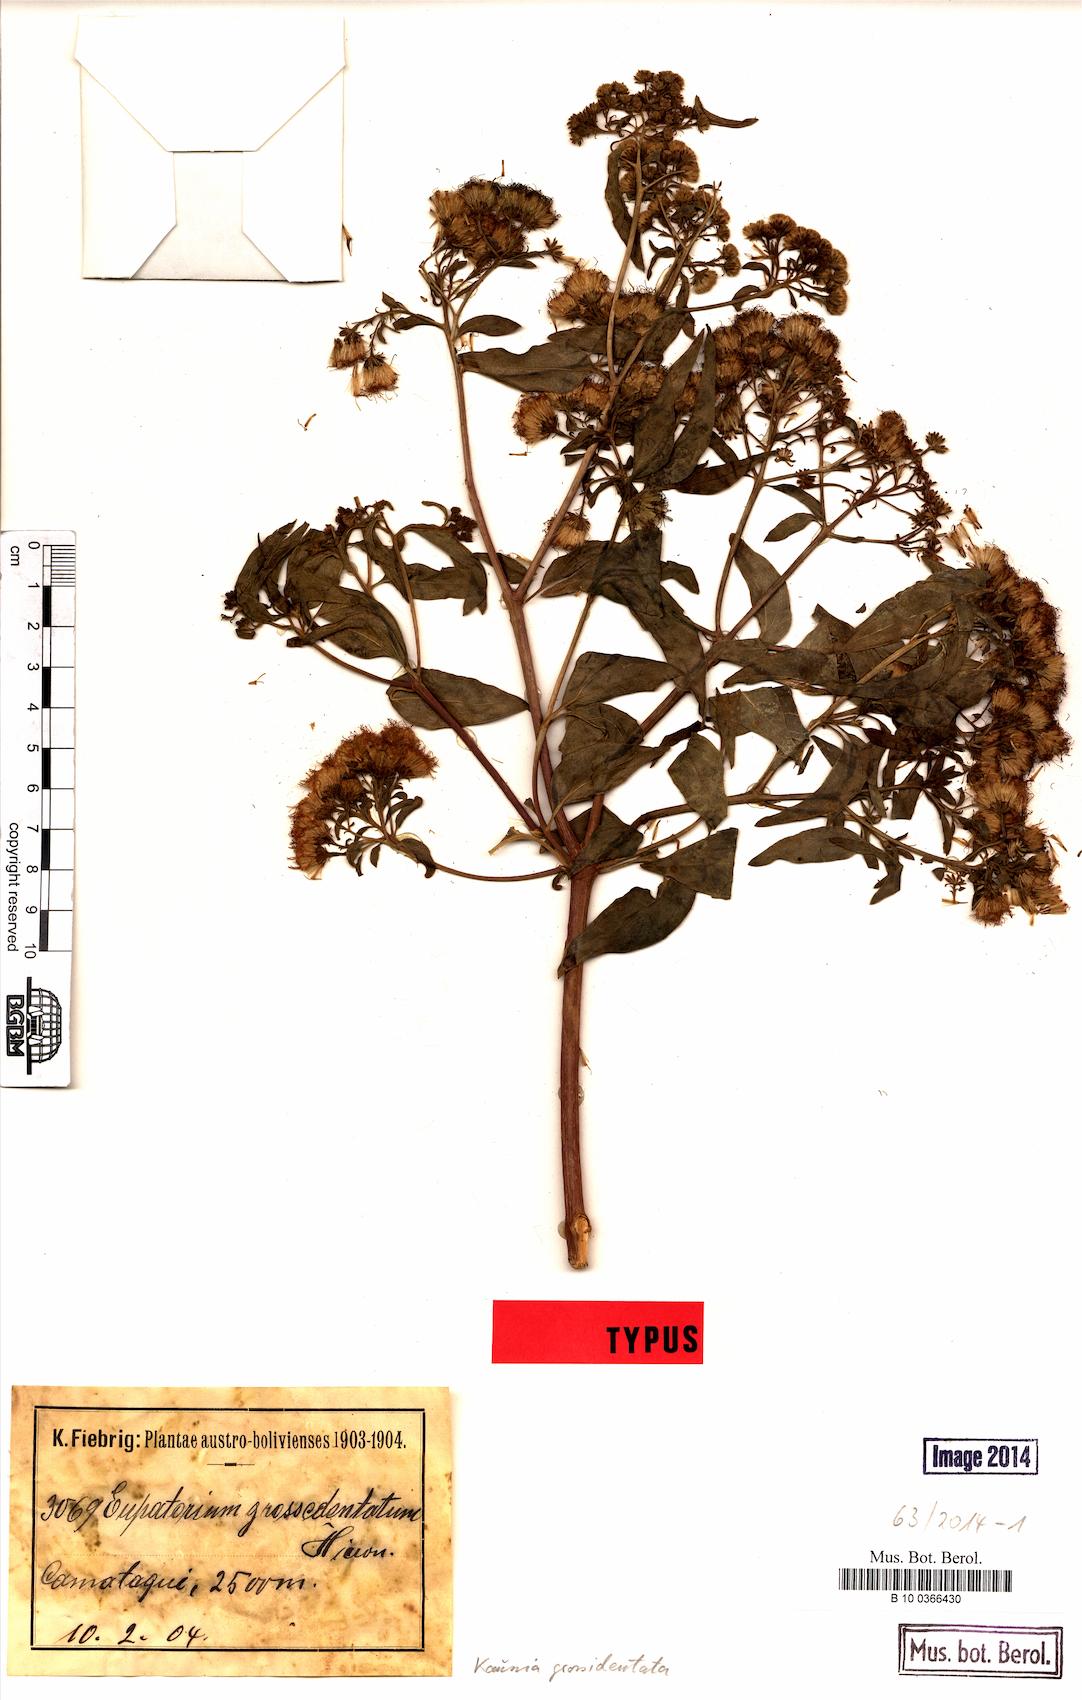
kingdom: Plantae
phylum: Tracheophyta
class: Magnoliopsida
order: Asterales
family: Asteraceae
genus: Kaunia
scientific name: Kaunia camataguiensis
